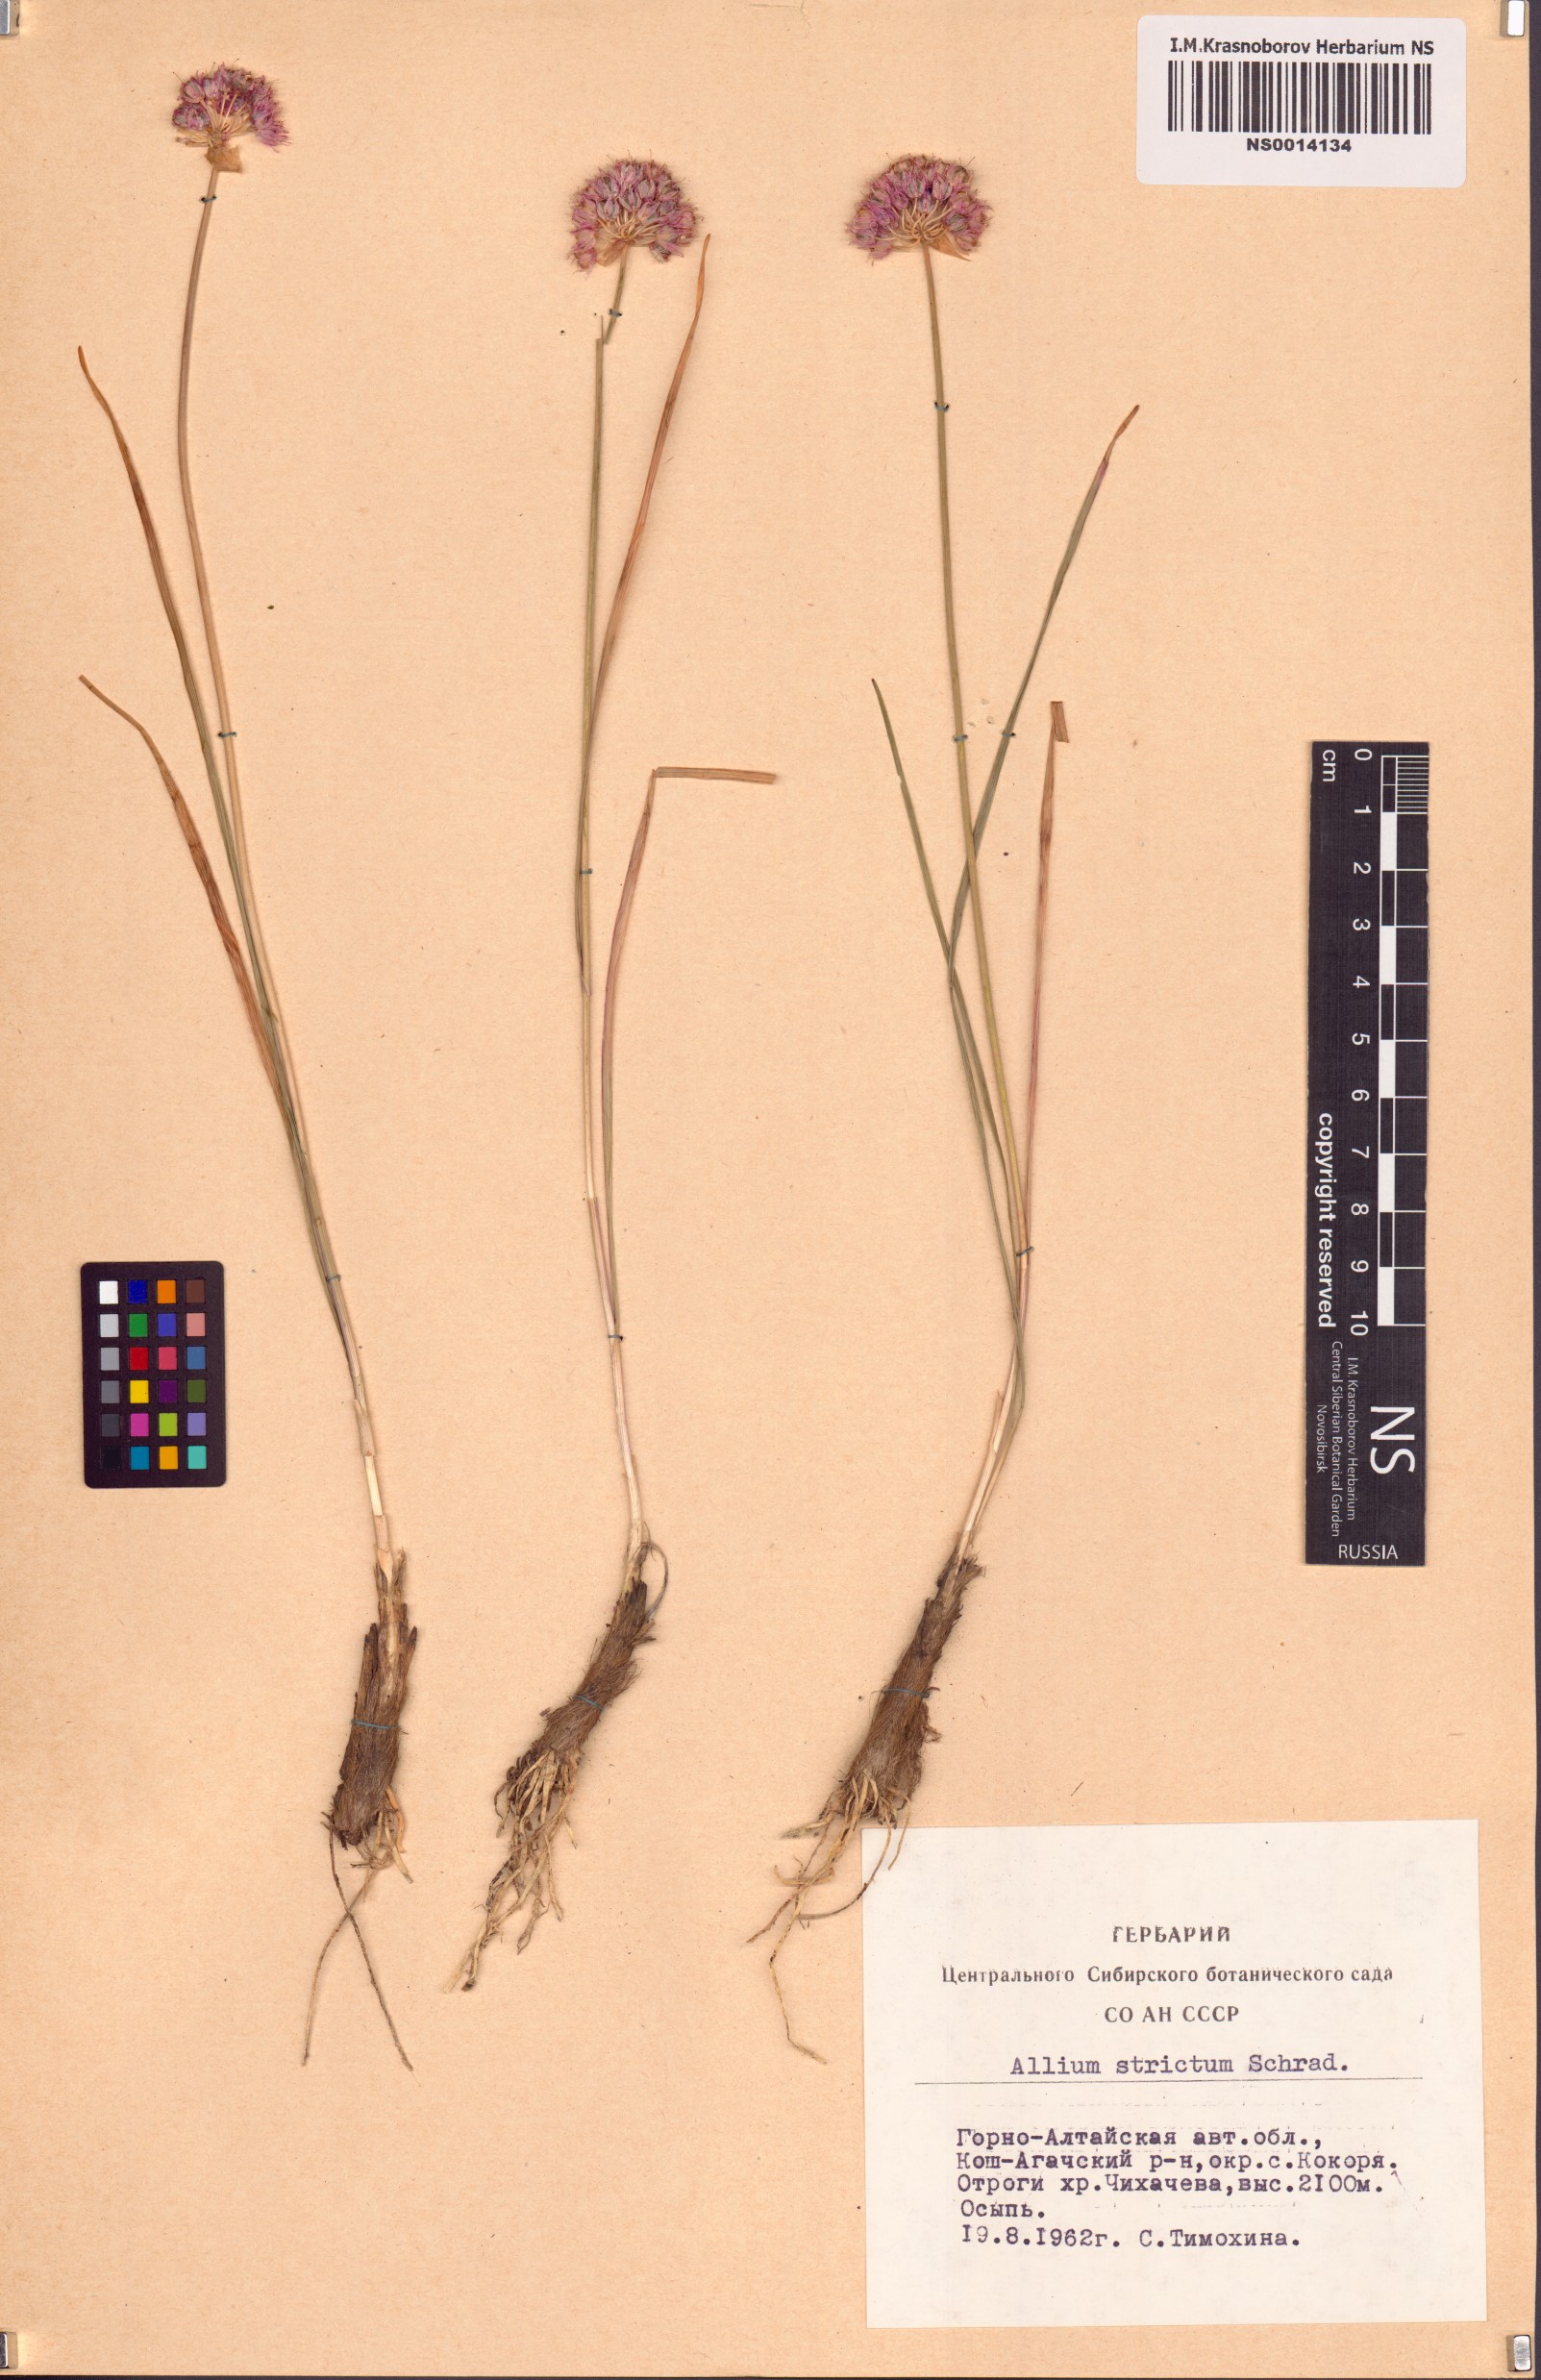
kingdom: Plantae
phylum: Tracheophyta
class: Liliopsida
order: Asparagales
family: Amaryllidaceae
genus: Allium
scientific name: Allium strictum
